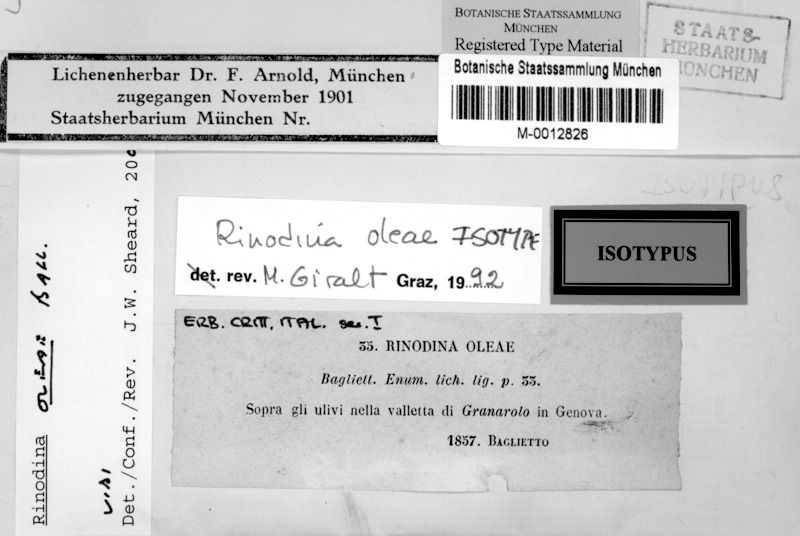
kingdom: Fungi
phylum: Ascomycota
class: Lecanoromycetes
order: Caliciales
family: Physciaceae
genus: Rinodina
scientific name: Rinodina oleae
